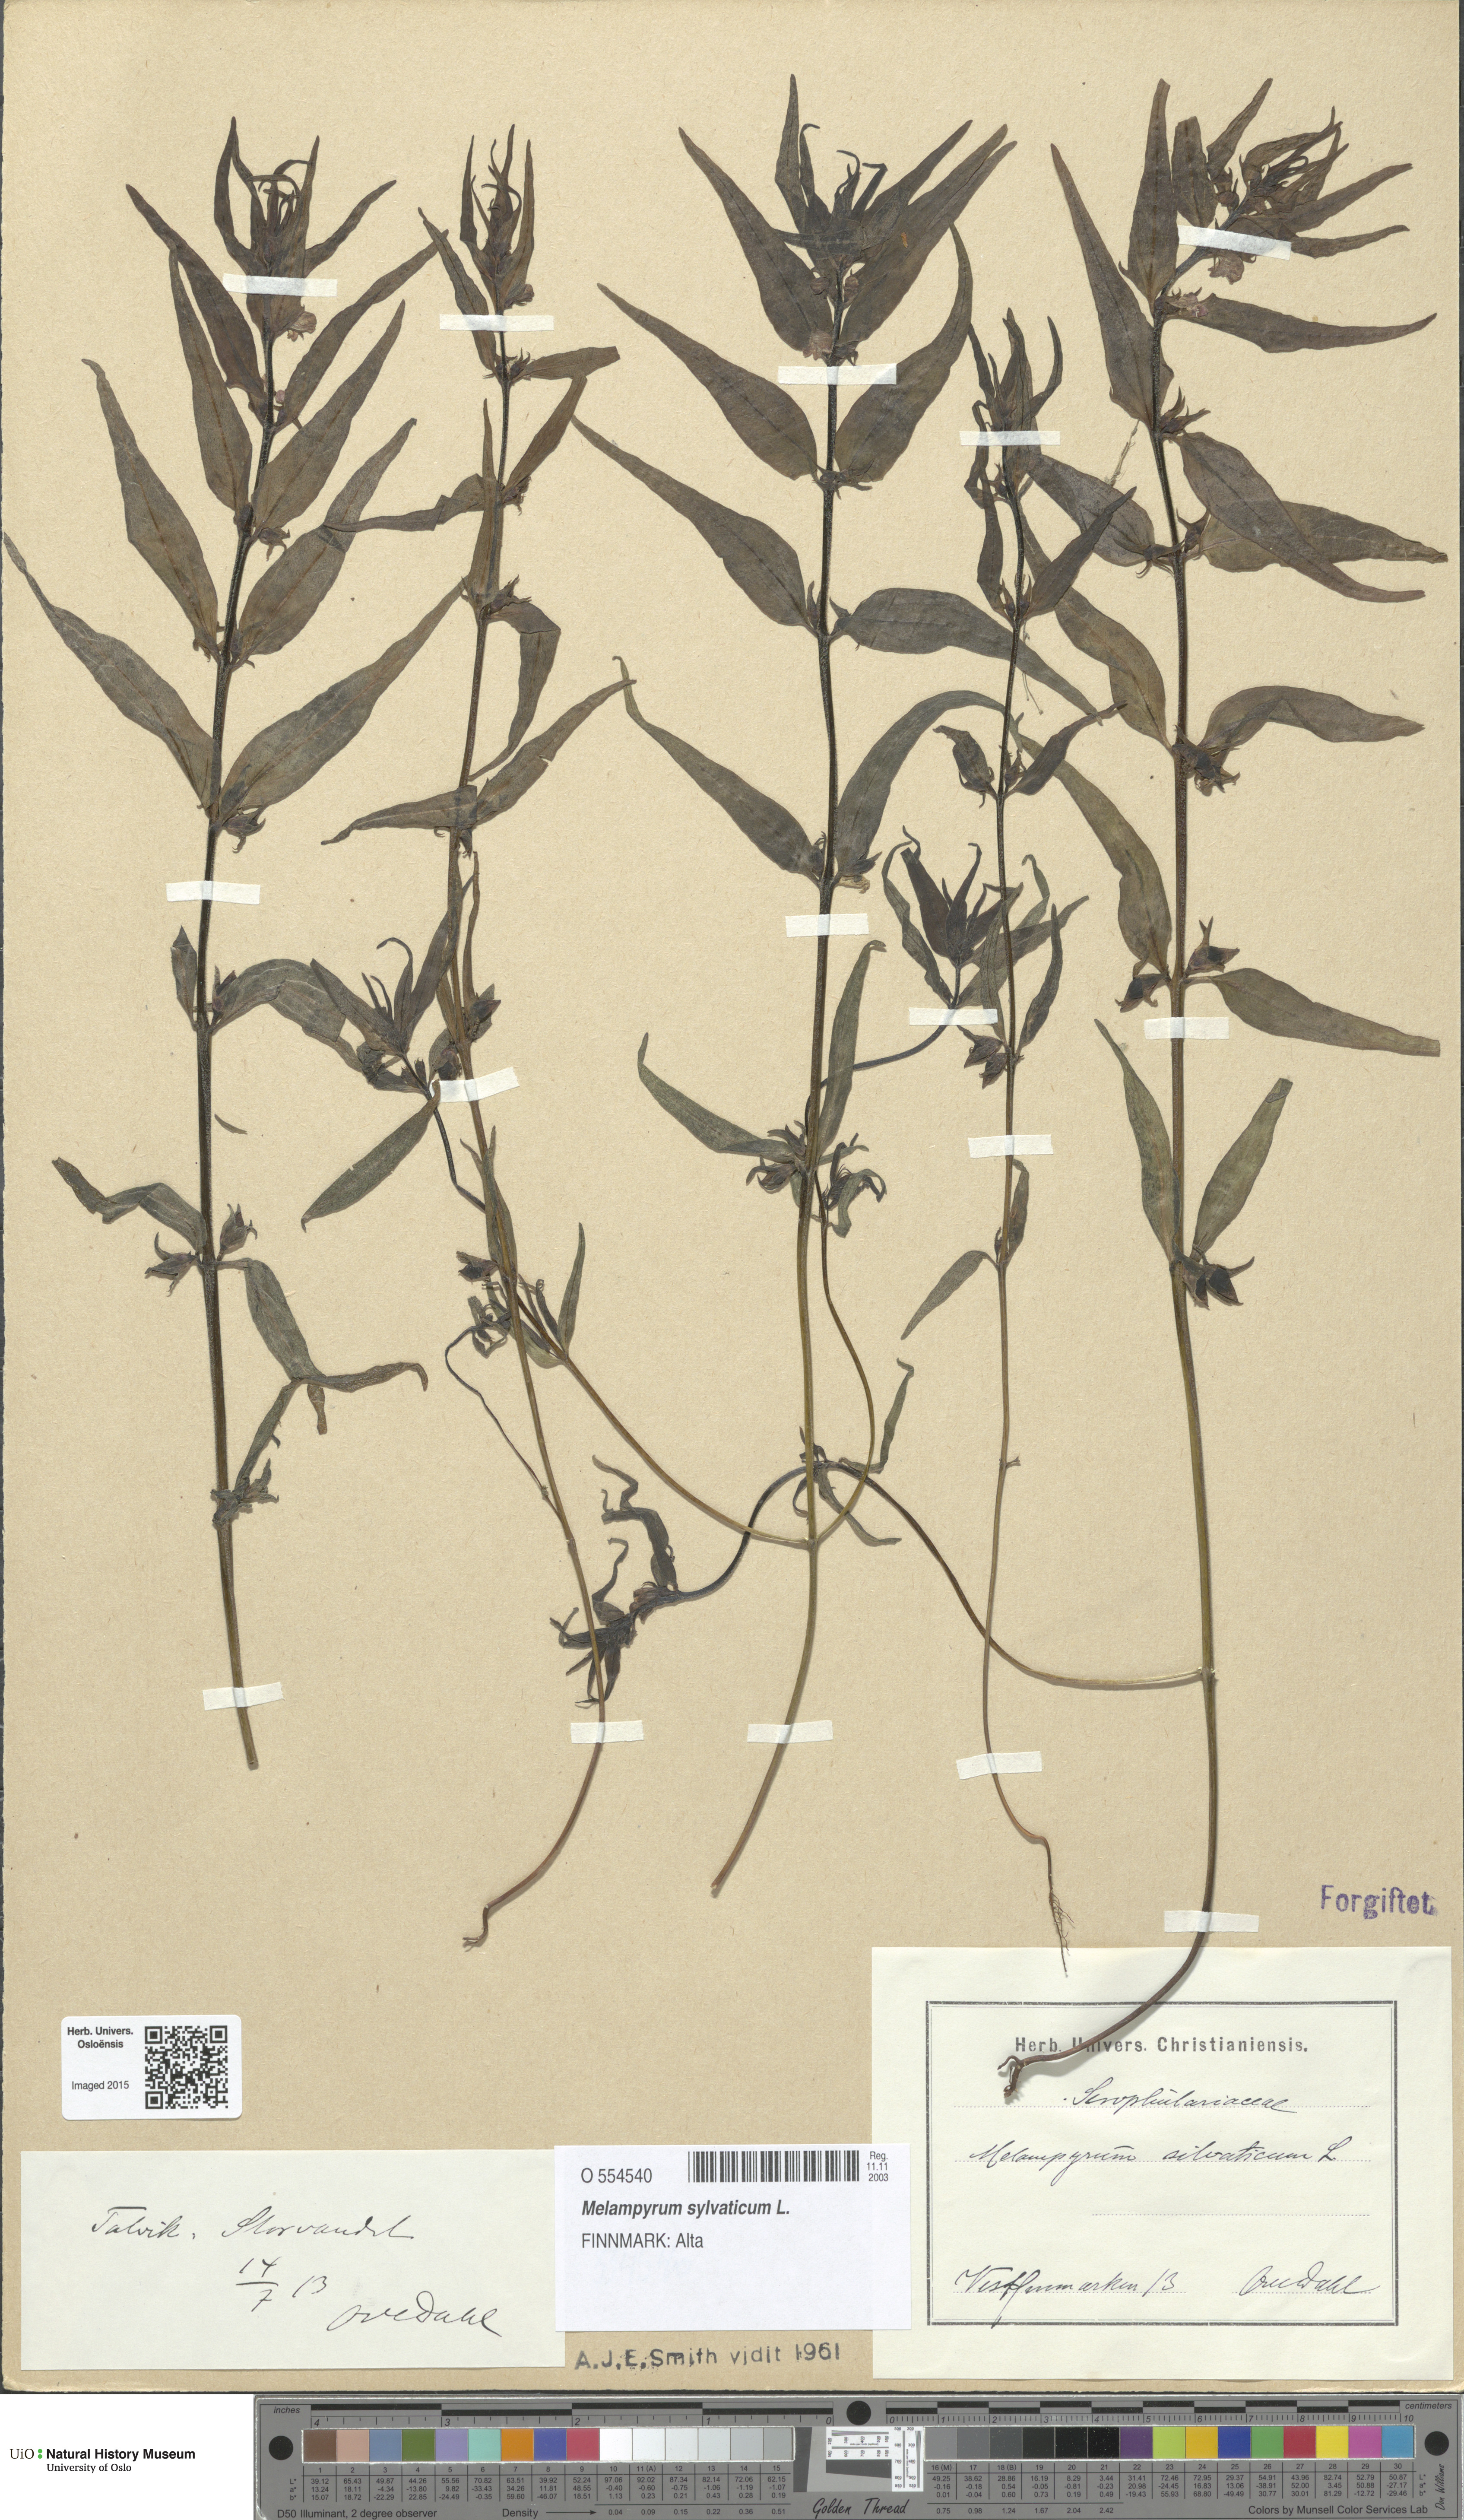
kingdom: Plantae
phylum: Tracheophyta
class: Magnoliopsida
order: Lamiales
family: Orobanchaceae
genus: Melampyrum
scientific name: Melampyrum sylvaticum
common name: Small cow-wheat
